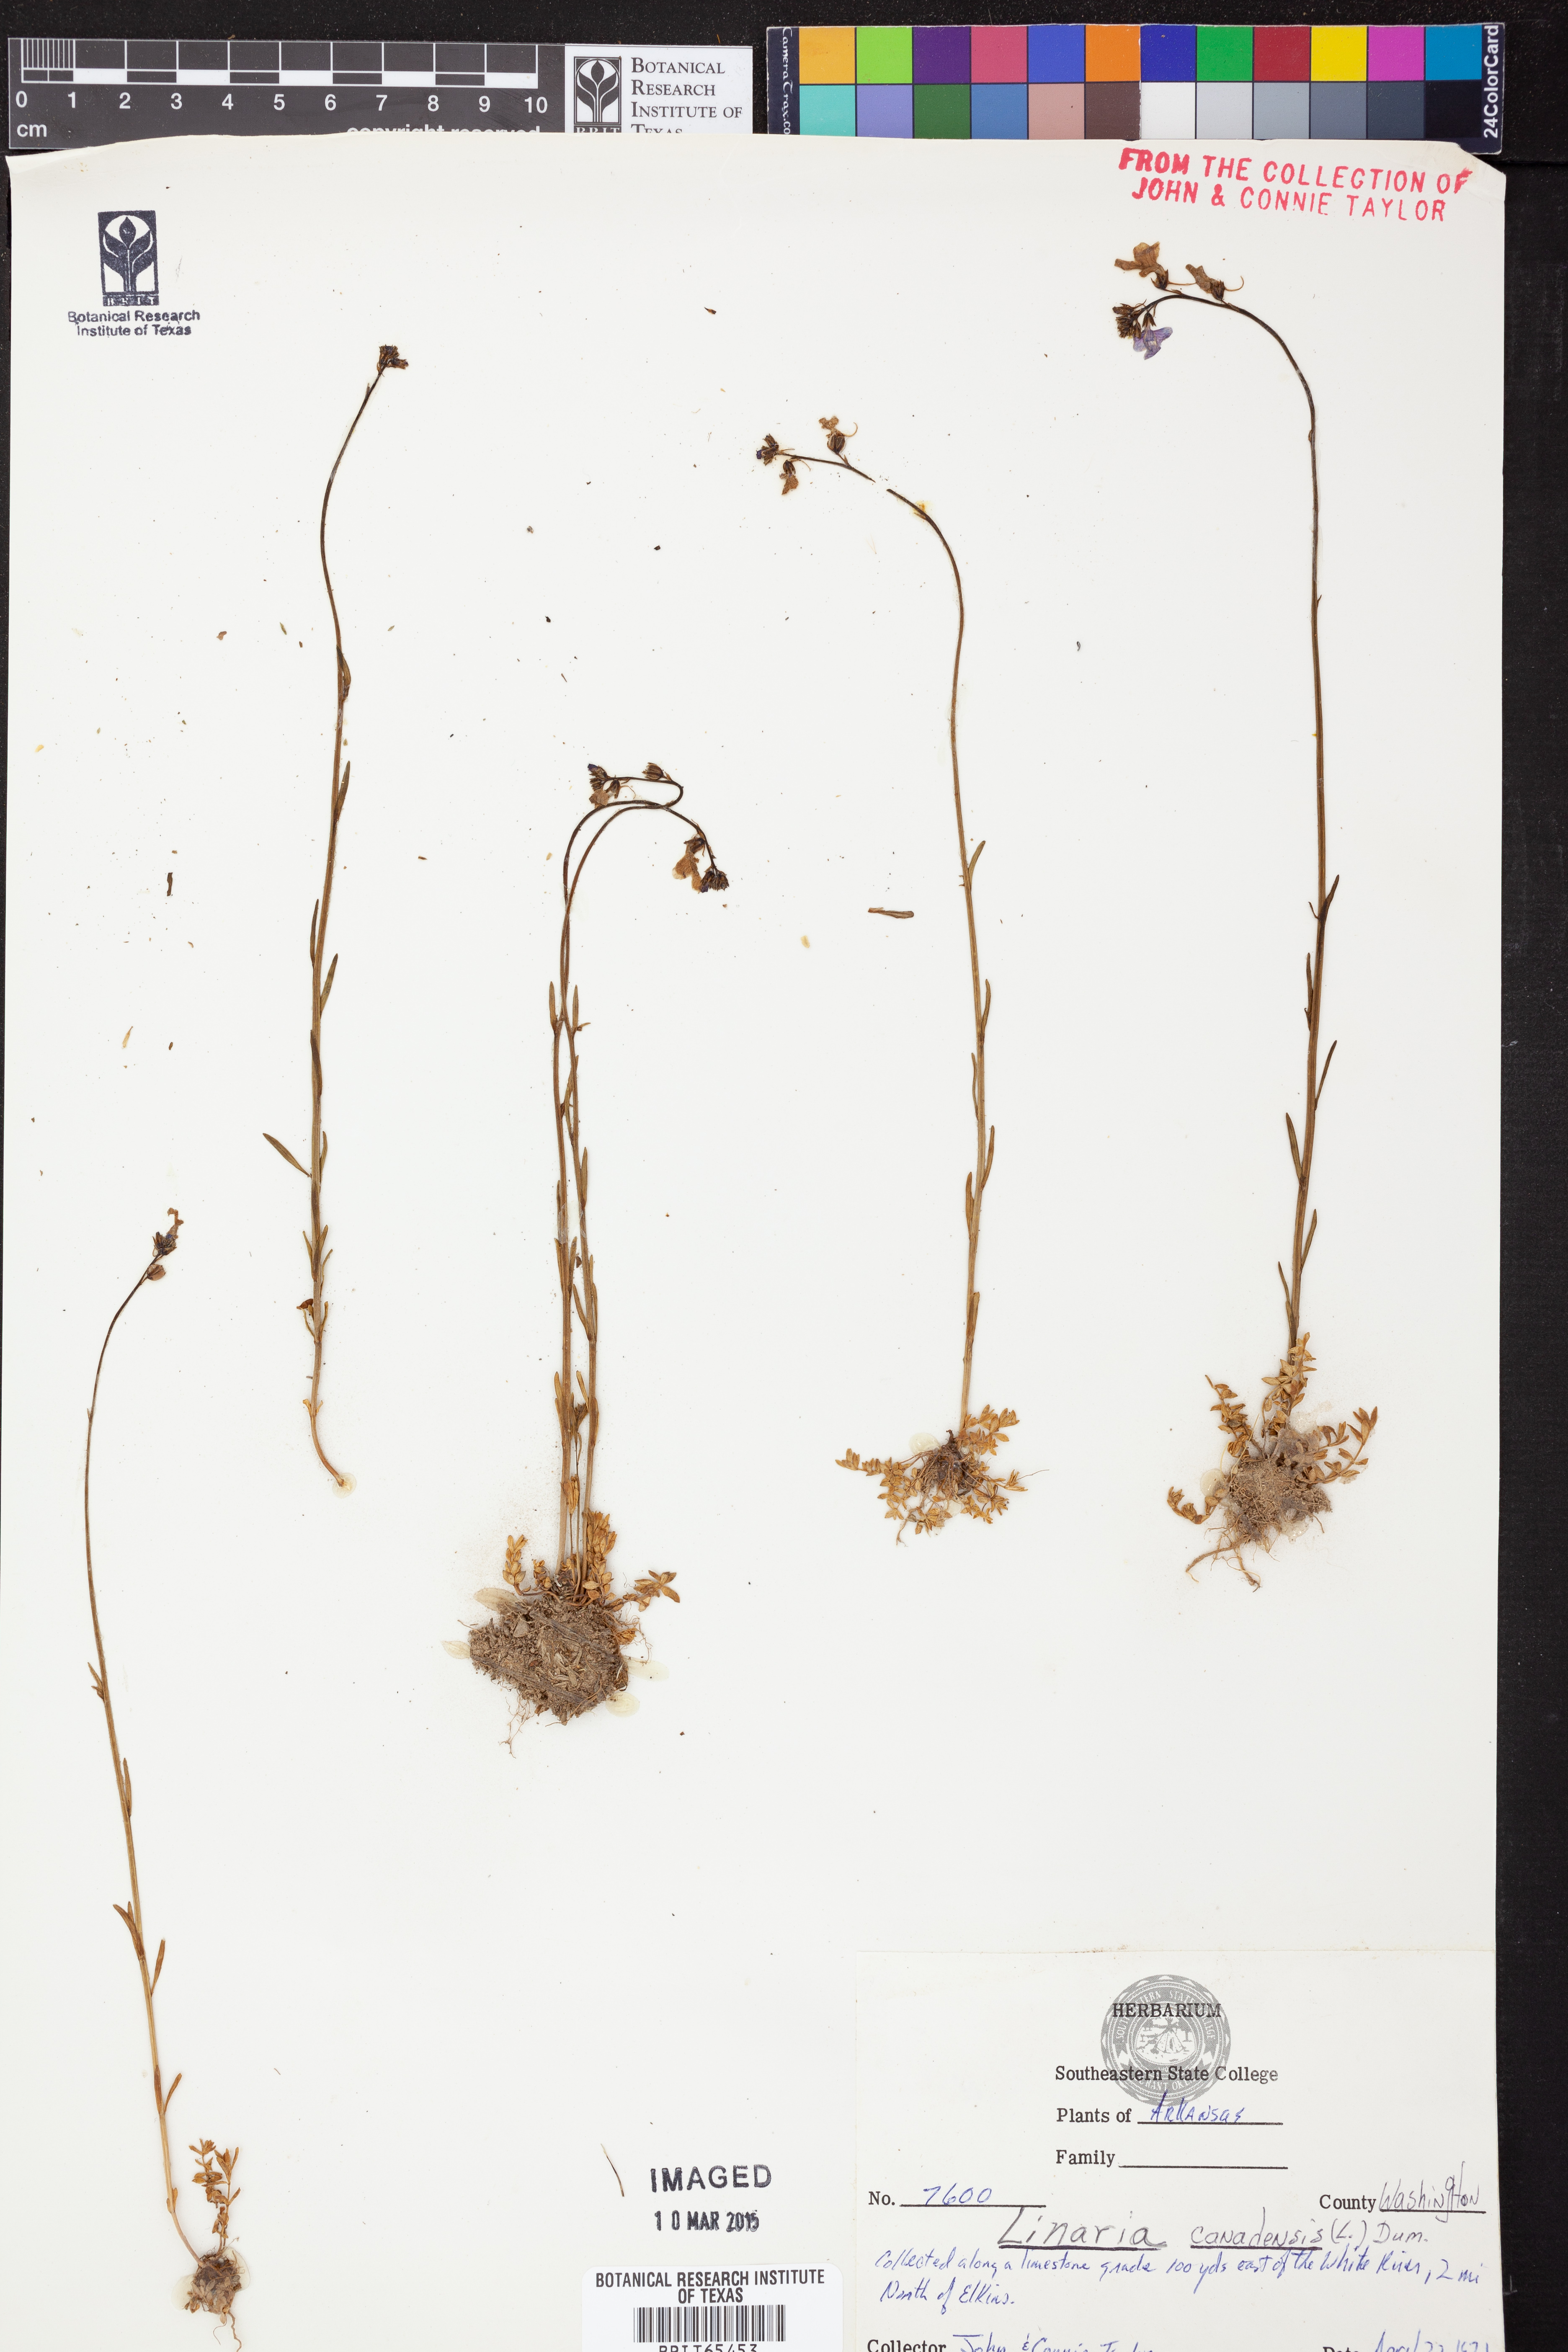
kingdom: Plantae
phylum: Tracheophyta
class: Magnoliopsida
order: Lamiales
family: Plantaginaceae
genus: Nuttallanthus
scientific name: Nuttallanthus canadensis
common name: Blue toadflax
